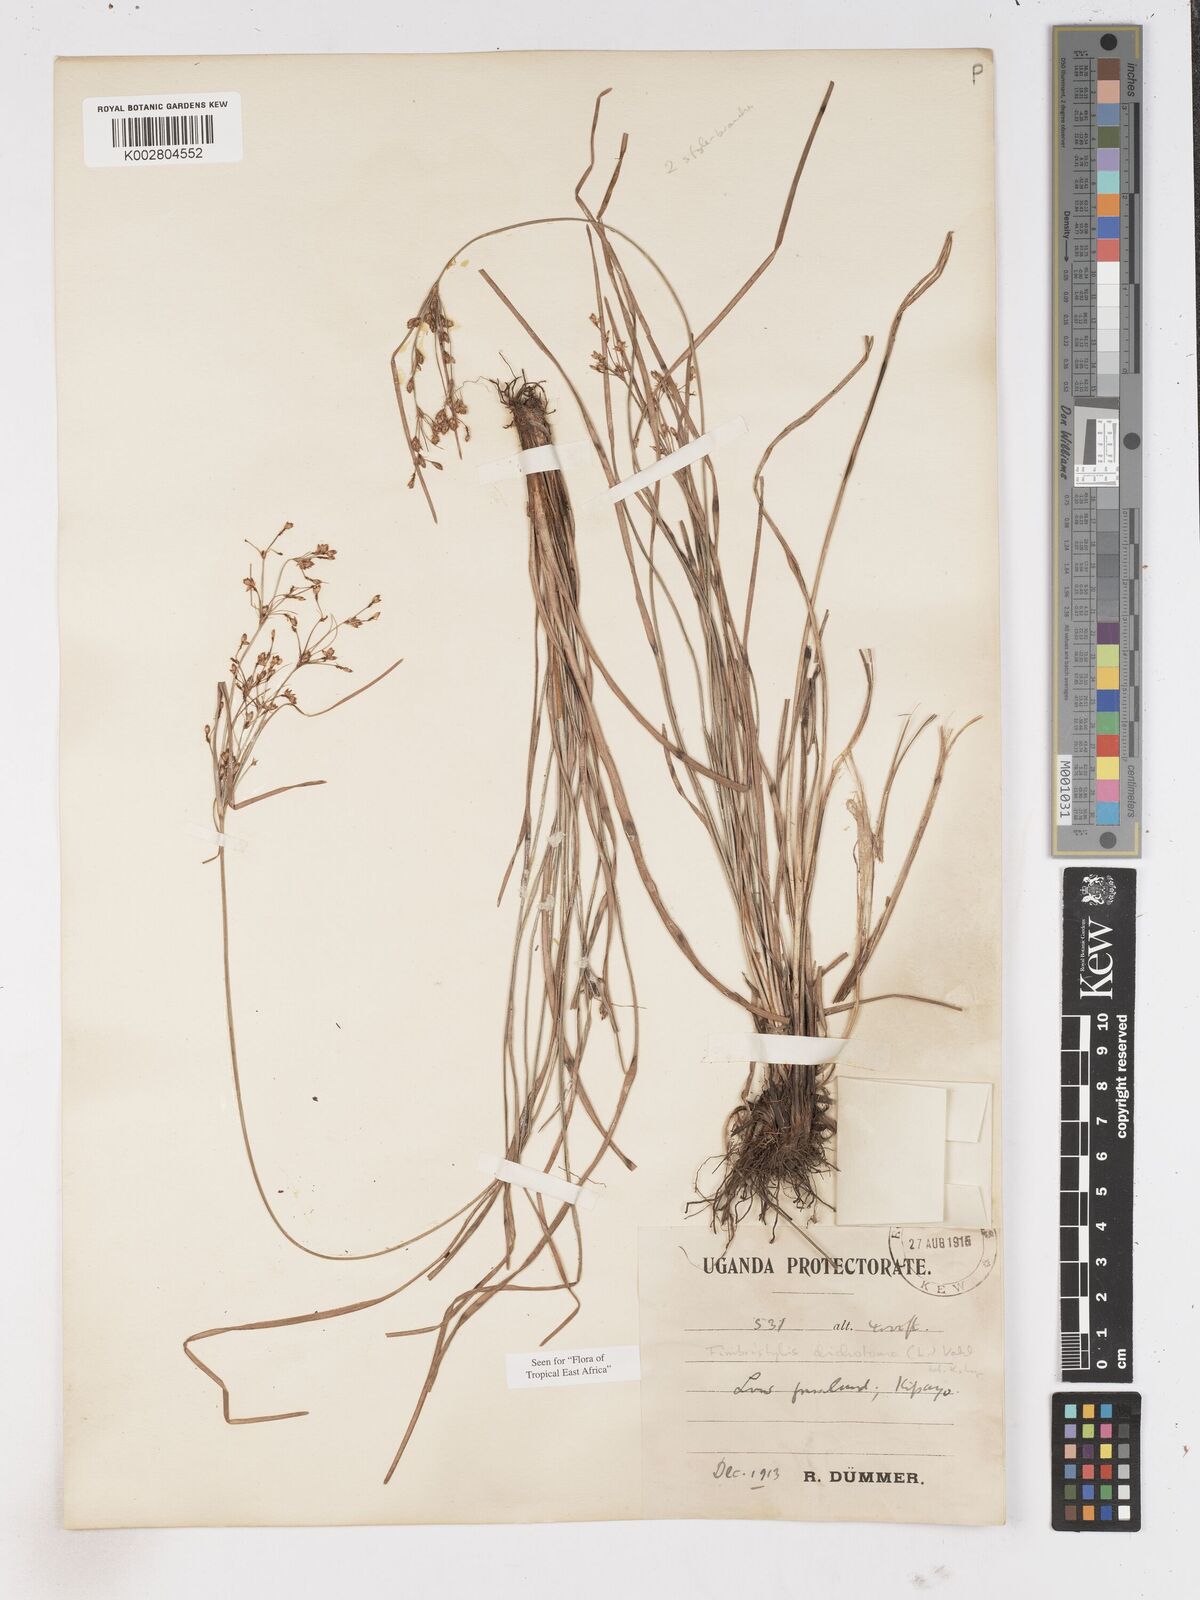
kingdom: Plantae
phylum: Tracheophyta
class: Liliopsida
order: Poales
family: Cyperaceae
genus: Fimbristylis
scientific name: Fimbristylis dichotoma
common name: Forked fimbry
